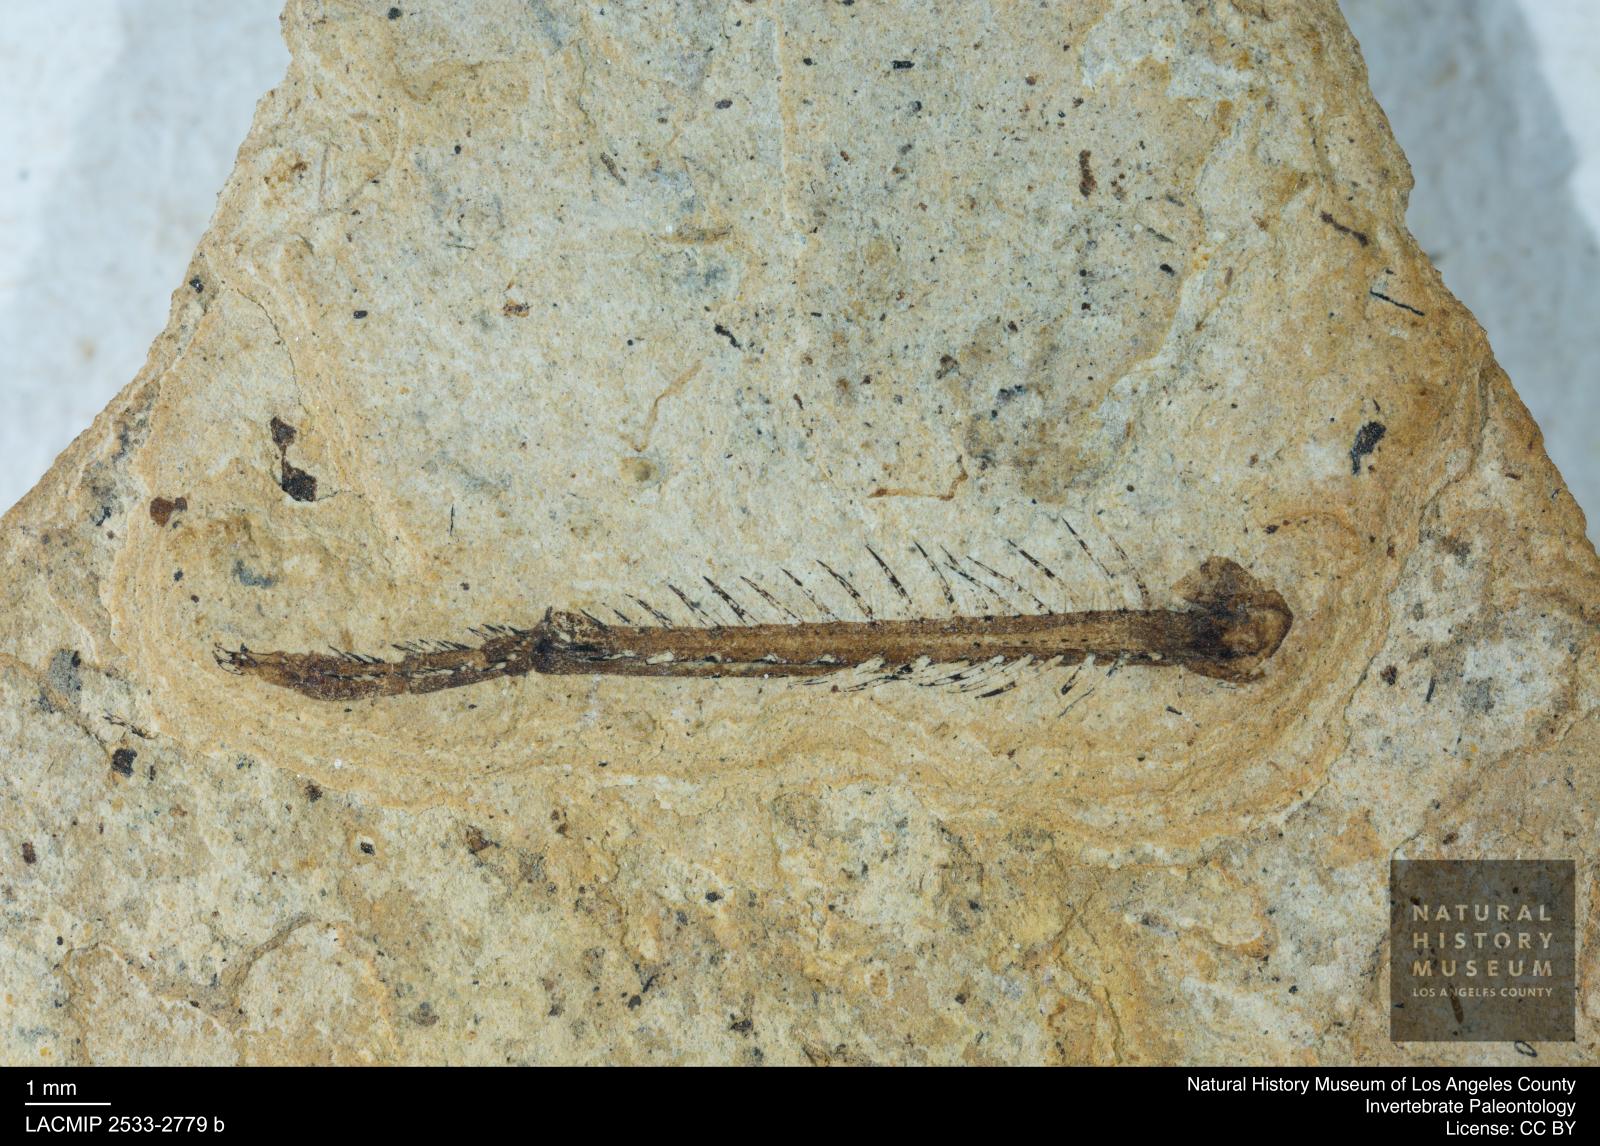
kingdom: Animalia
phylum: Arthropoda
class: Insecta
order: Odonata
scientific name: Odonata
